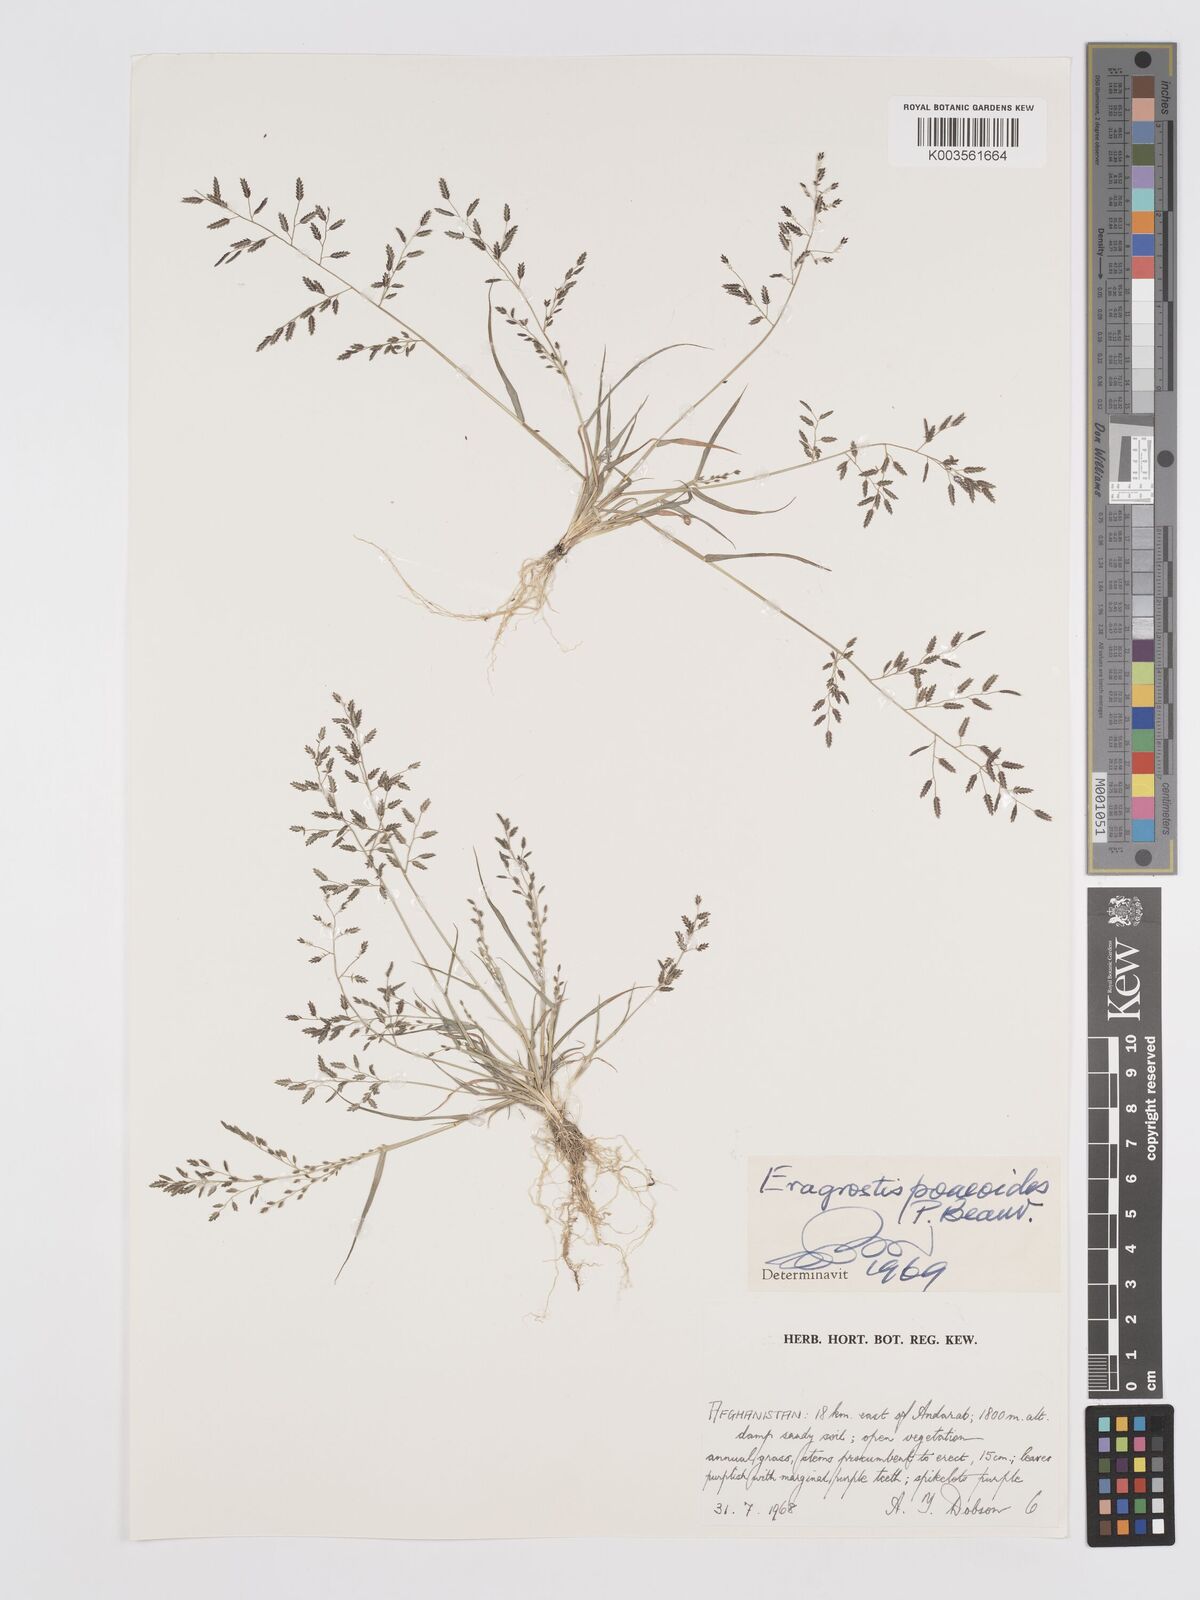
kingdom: Plantae
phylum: Tracheophyta
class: Liliopsida
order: Poales
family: Poaceae
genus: Eragrostis
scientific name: Eragrostis minor
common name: Small love-grass
